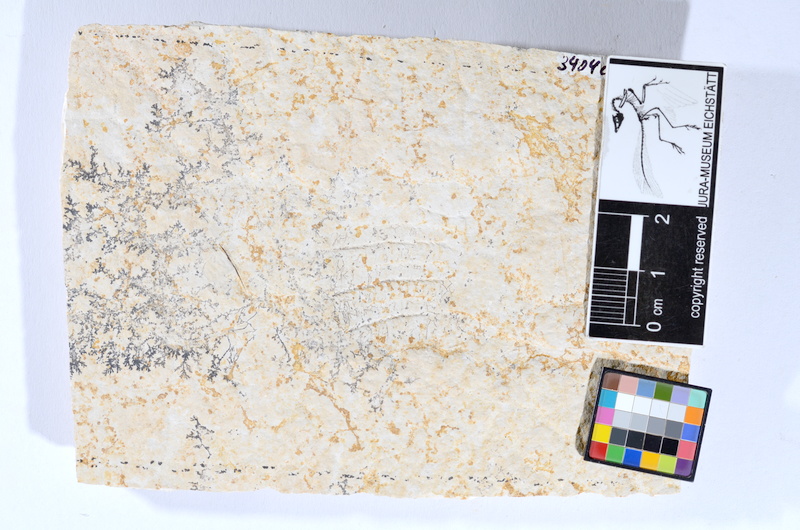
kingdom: Animalia
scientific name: Animalia
